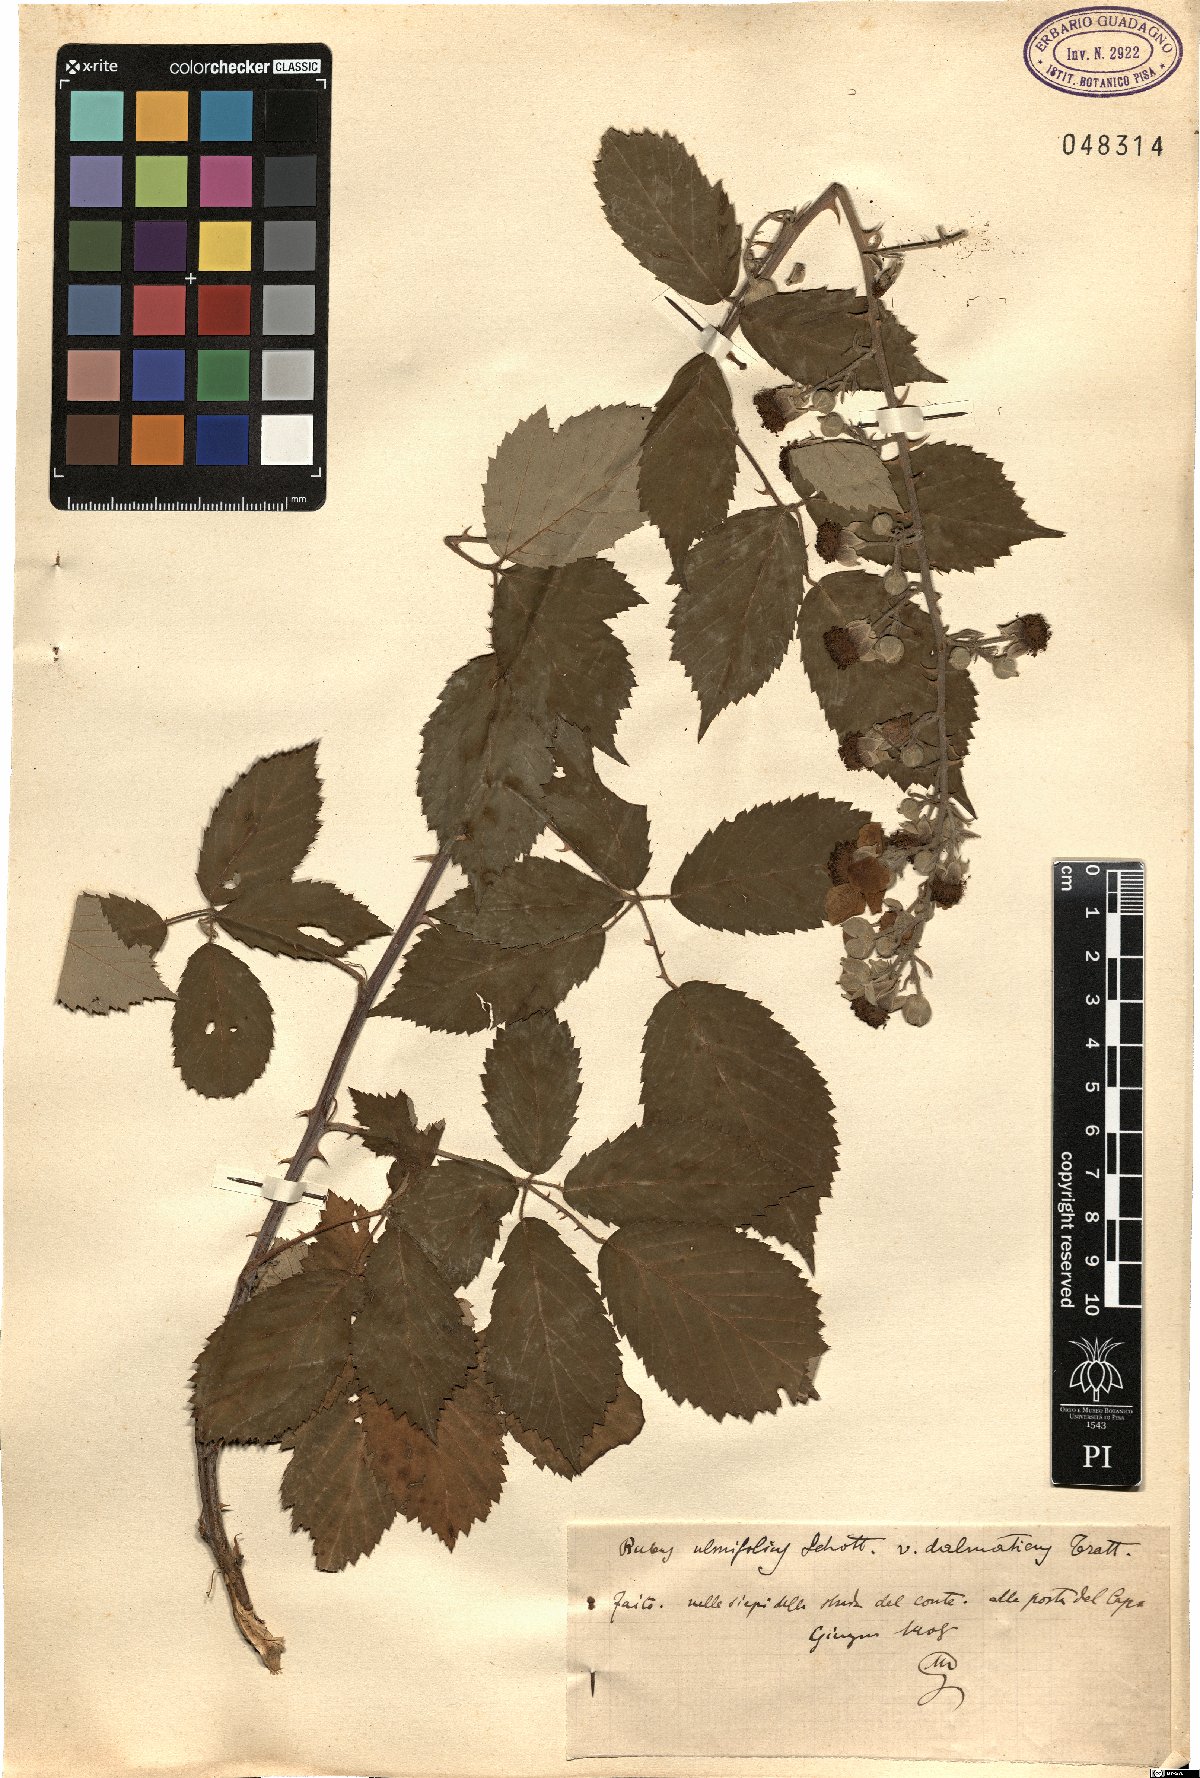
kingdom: Plantae
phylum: Tracheophyta
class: Magnoliopsida
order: Rosales
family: Rosaceae
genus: Rubus
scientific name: Rubus sanctus
